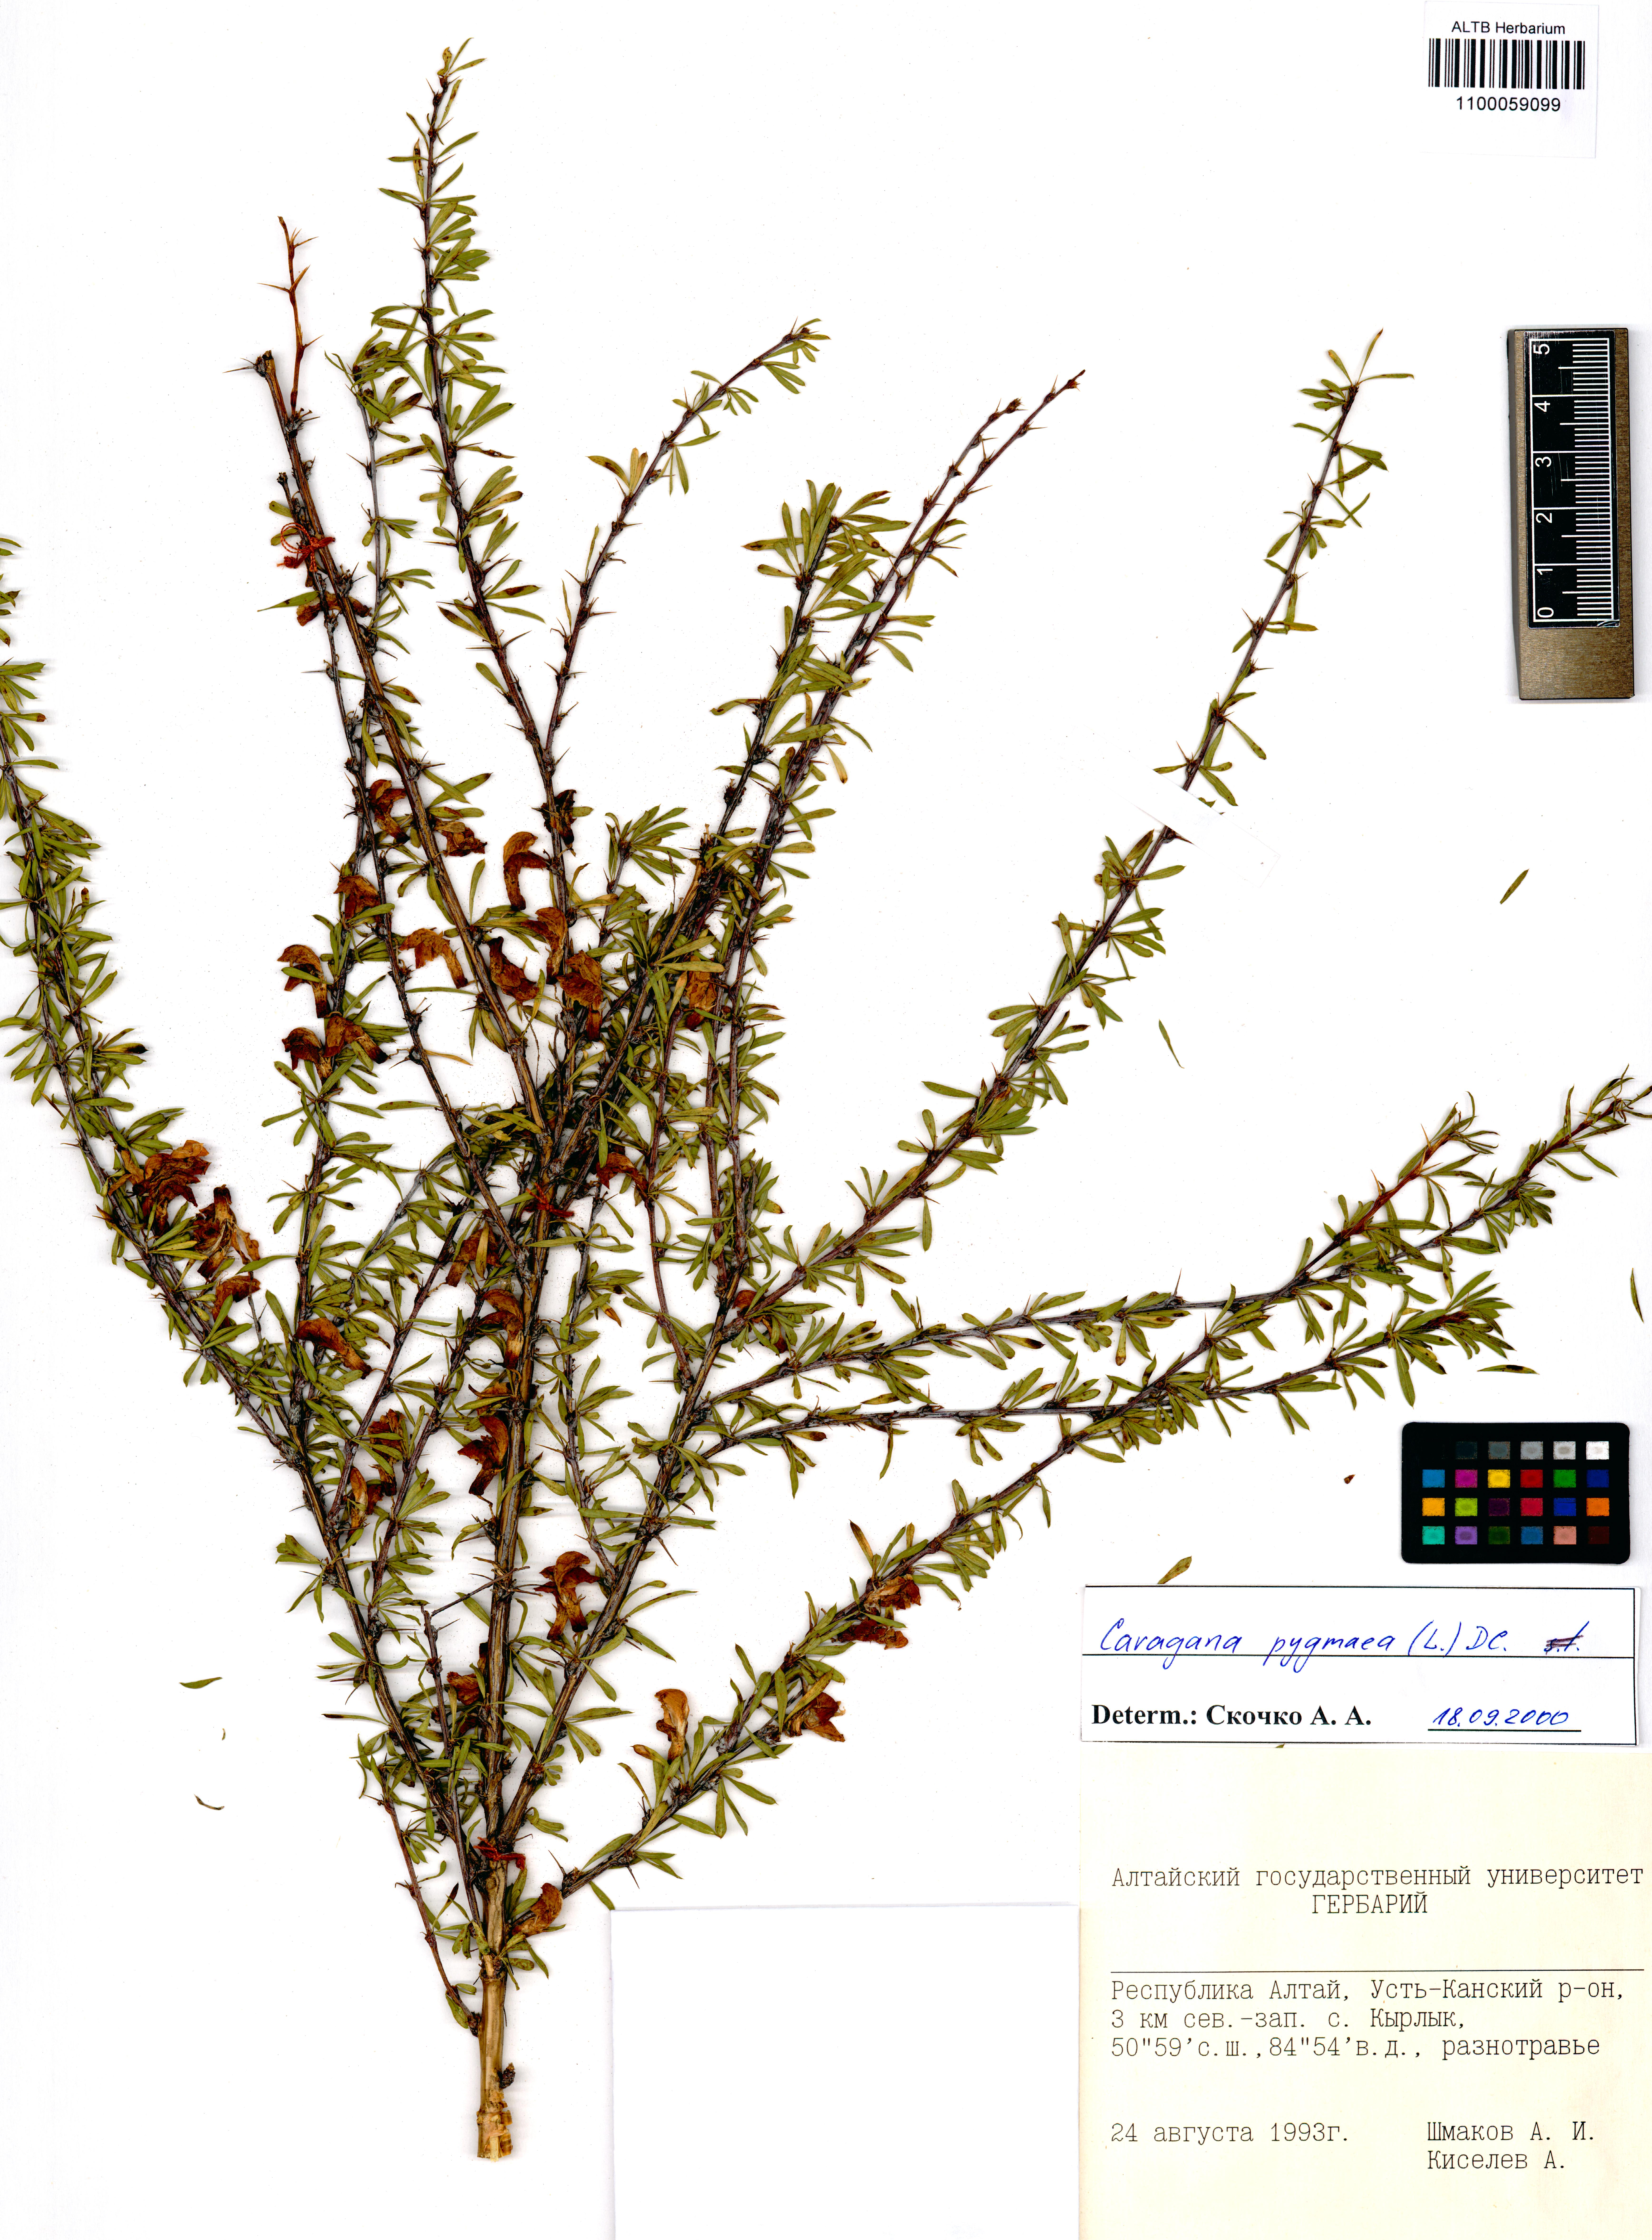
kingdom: Plantae
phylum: Tracheophyta
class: Magnoliopsida
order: Fabales
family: Fabaceae
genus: Caragana
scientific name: Caragana pygmaea
